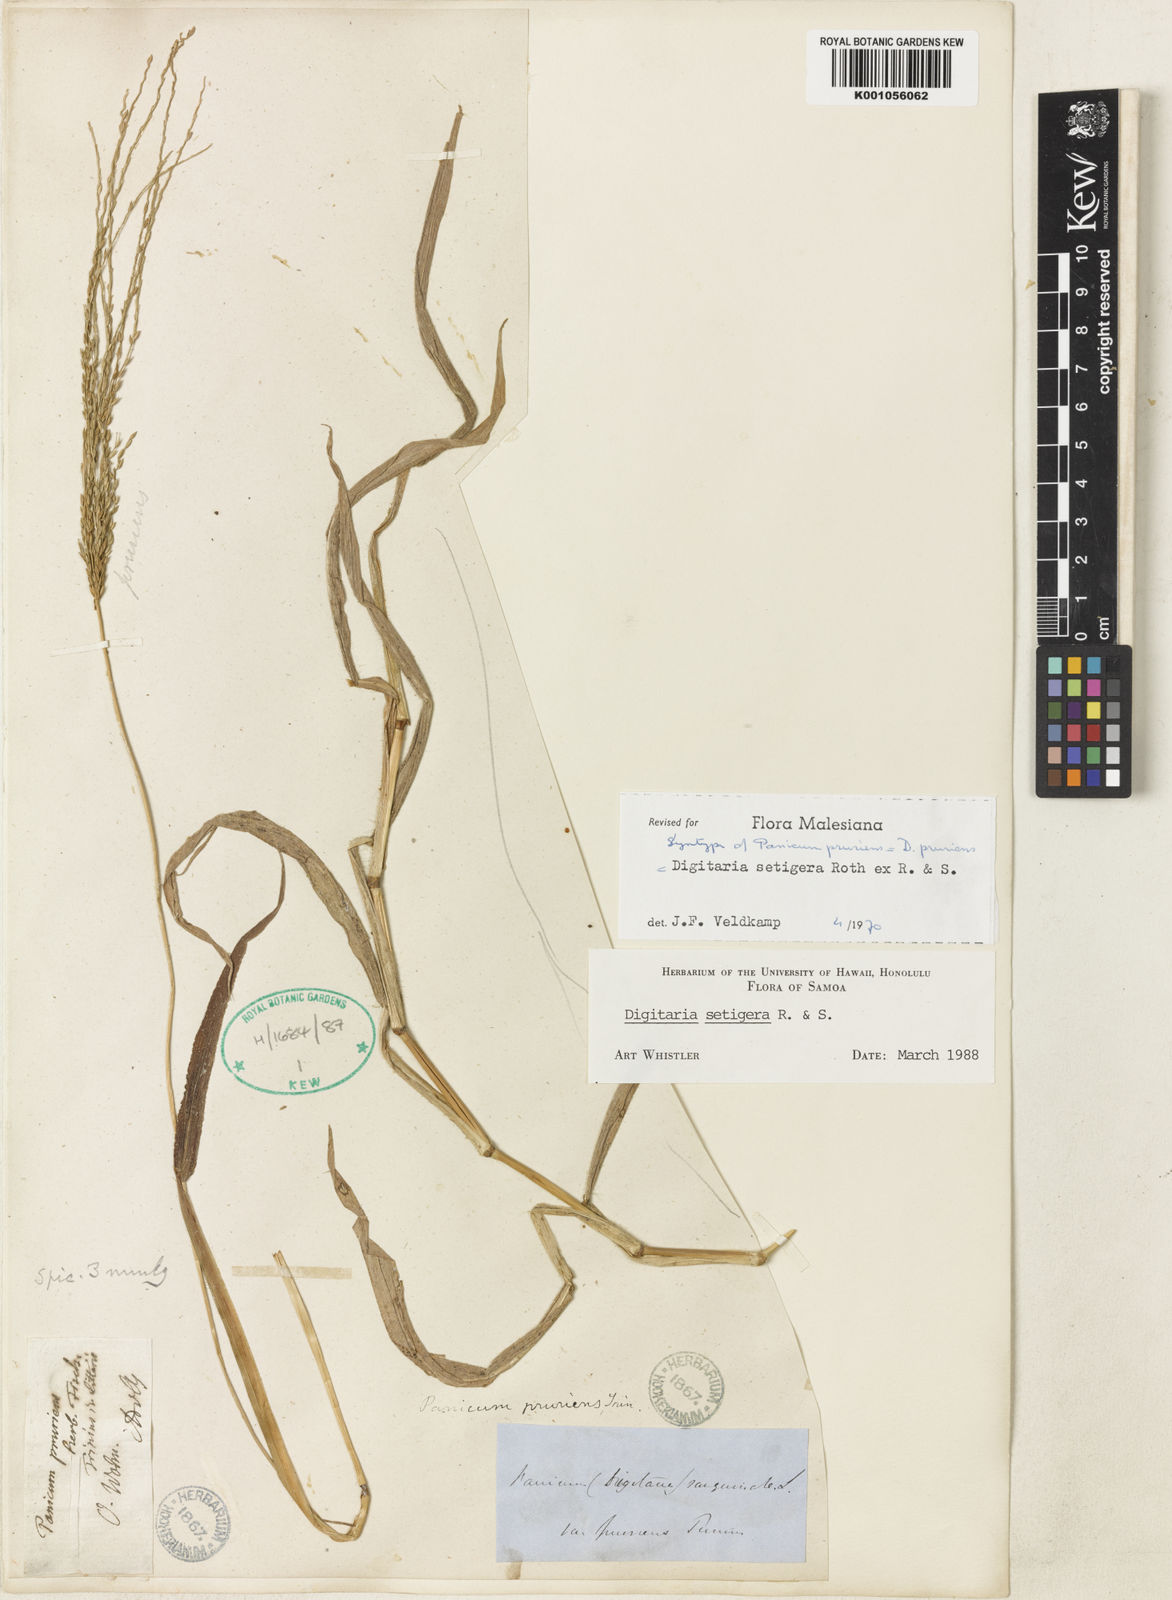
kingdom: Plantae
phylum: Tracheophyta
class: Liliopsida
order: Poales
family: Poaceae
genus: Digitaria
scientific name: Digitaria setigera
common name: East indian crabgrass
